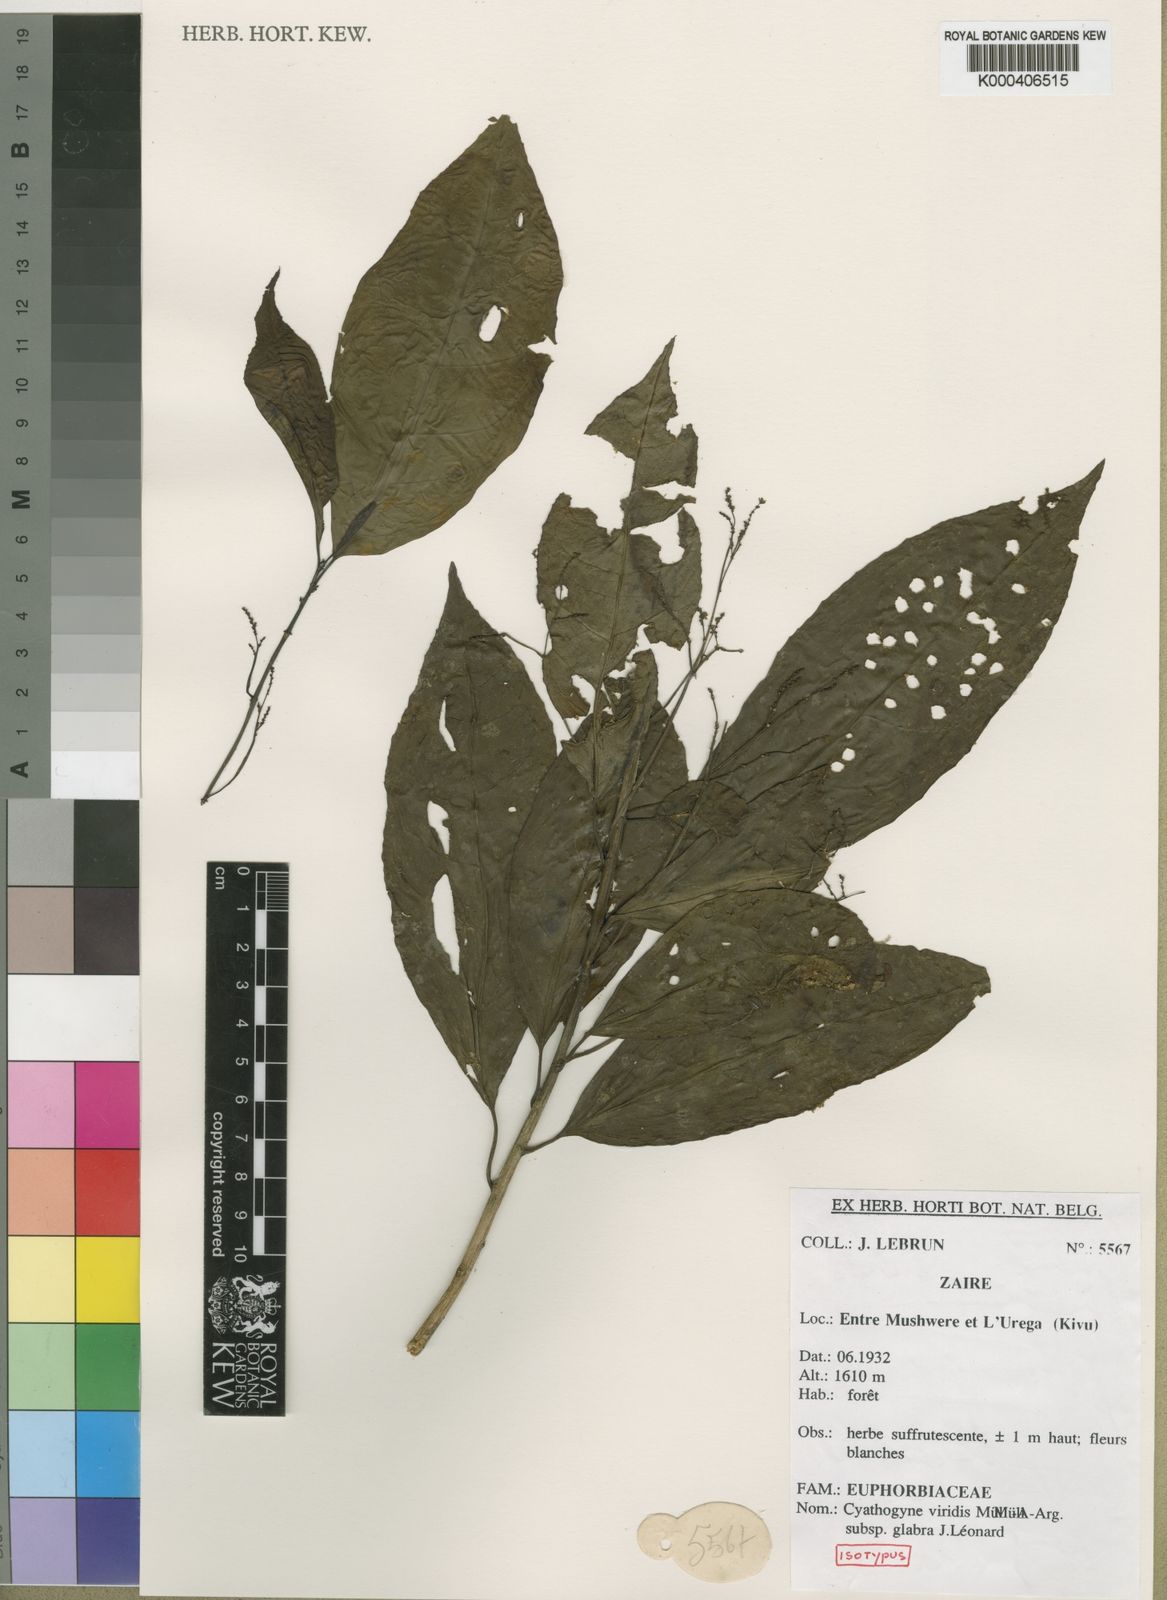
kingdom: Plantae
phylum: Tracheophyta
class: Magnoliopsida
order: Malpighiales
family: Phyllanthaceae
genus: Thecacoris
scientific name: Thecacoris
